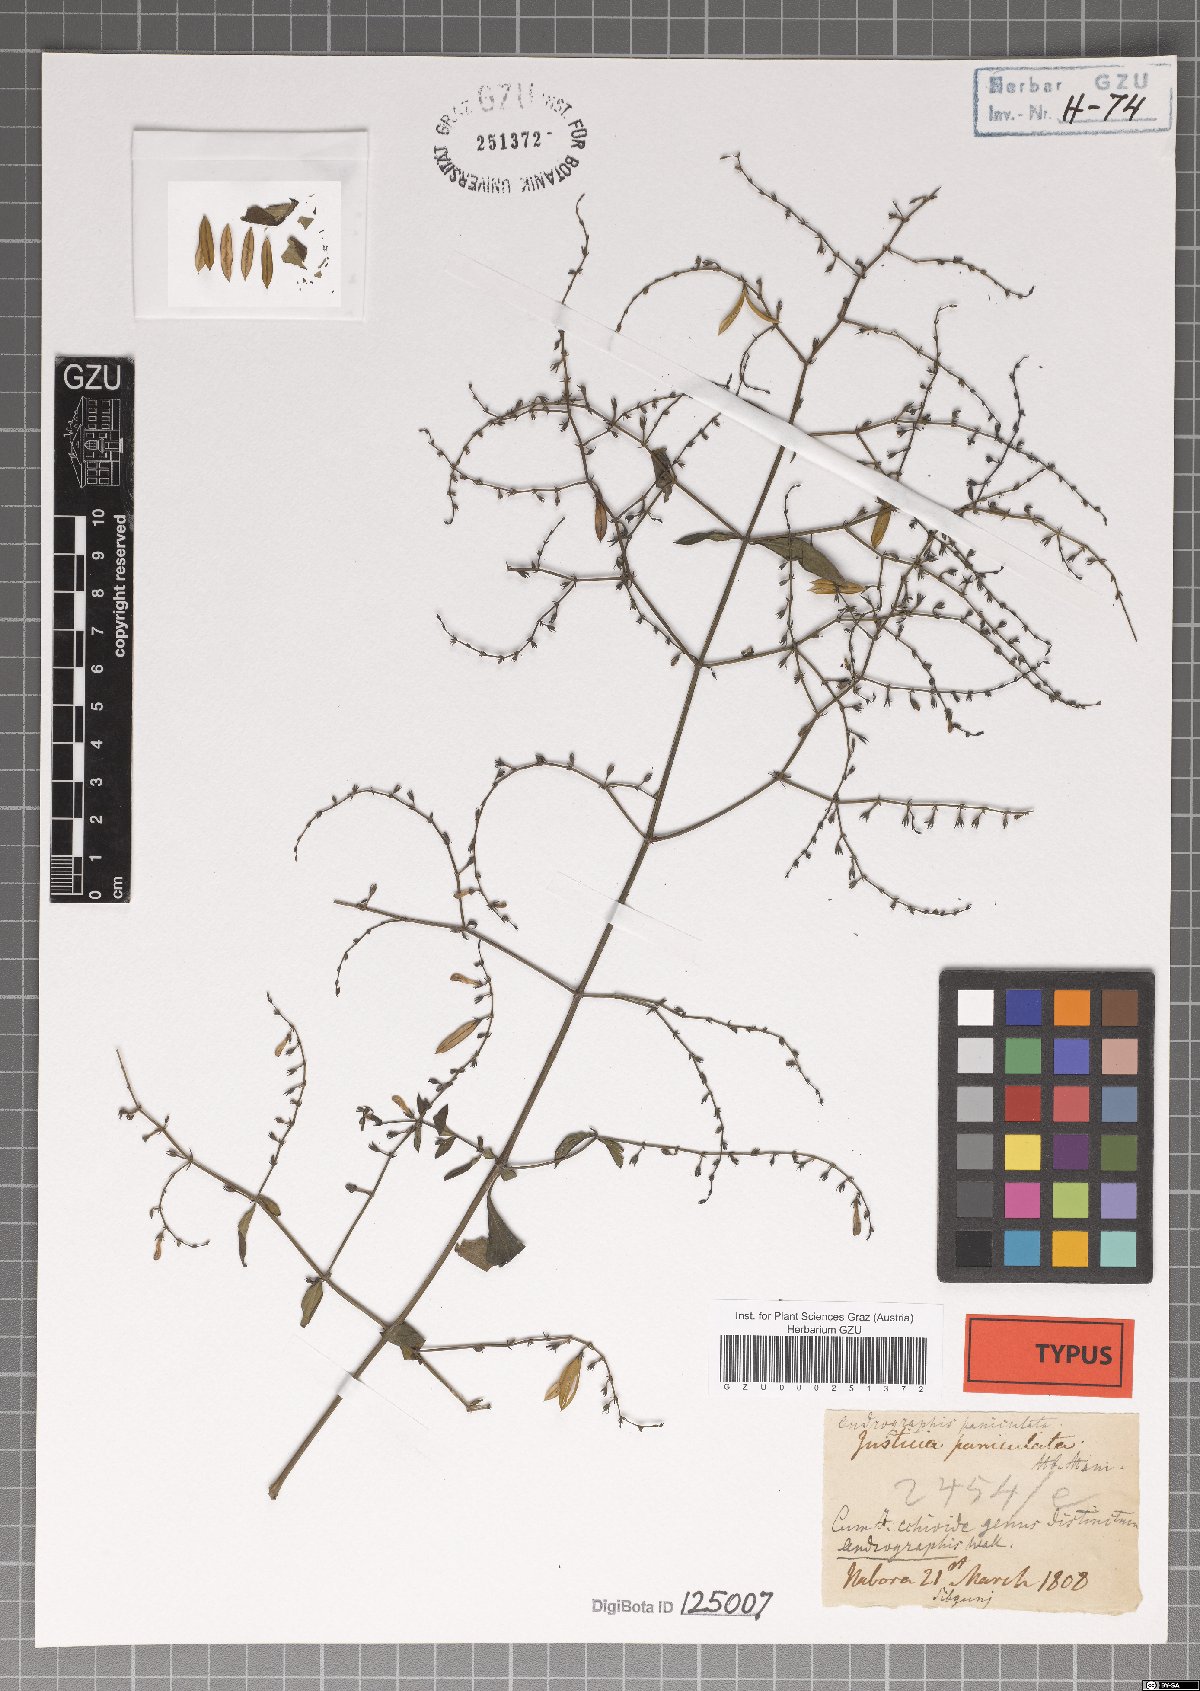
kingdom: Plantae
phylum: Tracheophyta
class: Magnoliopsida
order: Lamiales
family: Acanthaceae
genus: Andrographis
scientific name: Andrographis paniculata
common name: Green chireta
